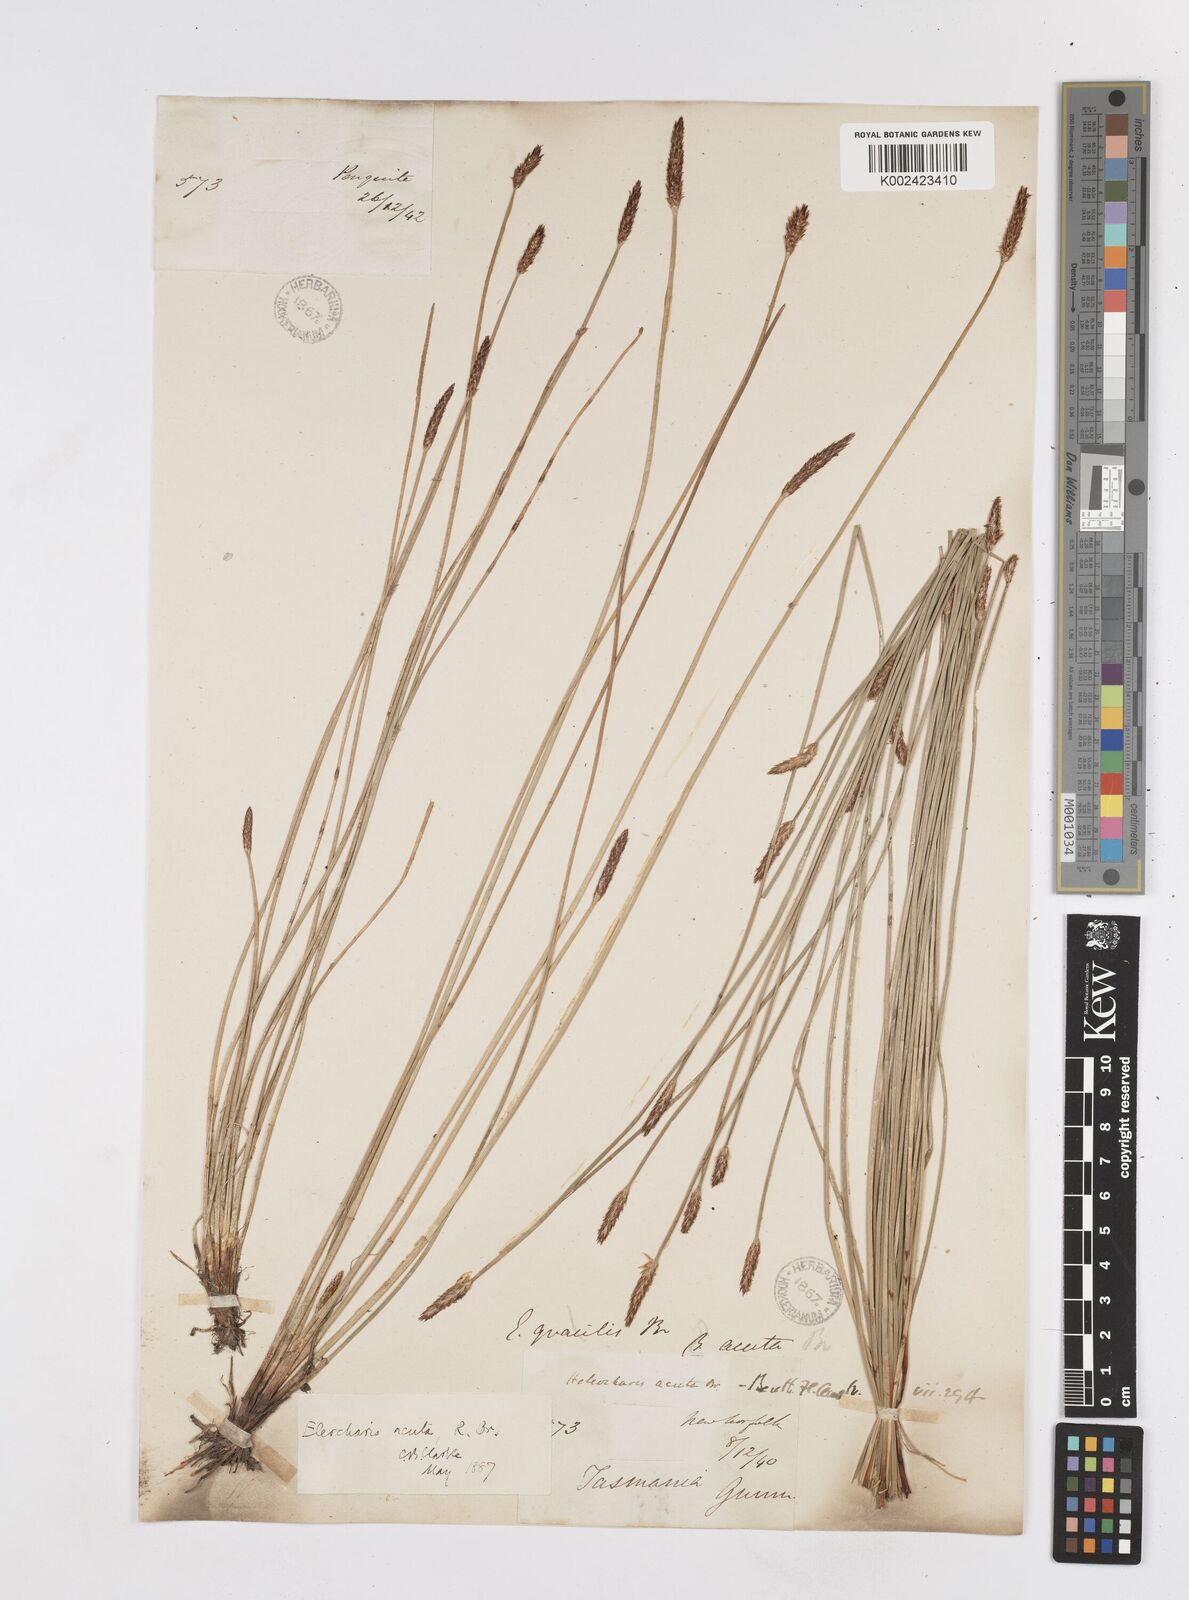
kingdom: Plantae
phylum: Tracheophyta
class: Liliopsida
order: Poales
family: Cyperaceae
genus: Eleocharis
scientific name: Eleocharis acuta
